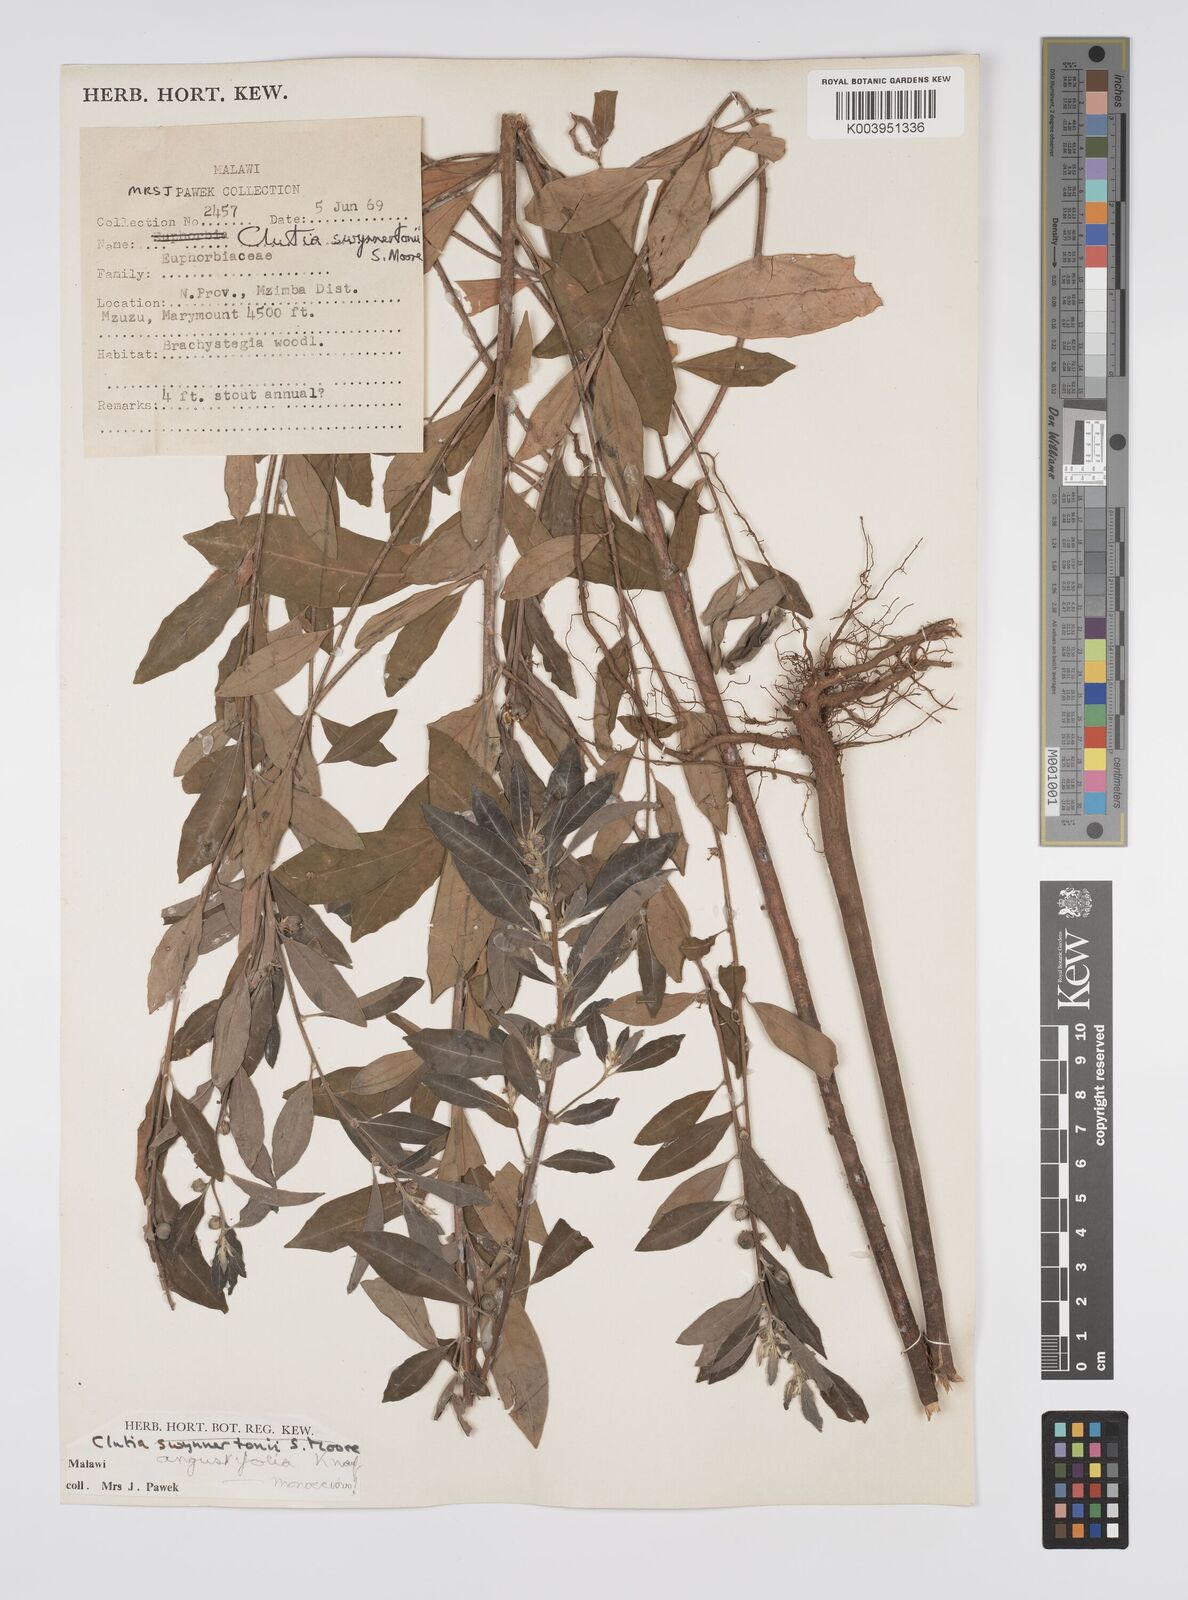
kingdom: Plantae
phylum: Tracheophyta
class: Magnoliopsida
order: Malpighiales
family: Peraceae
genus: Clutia
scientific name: Clutia angustifolia
